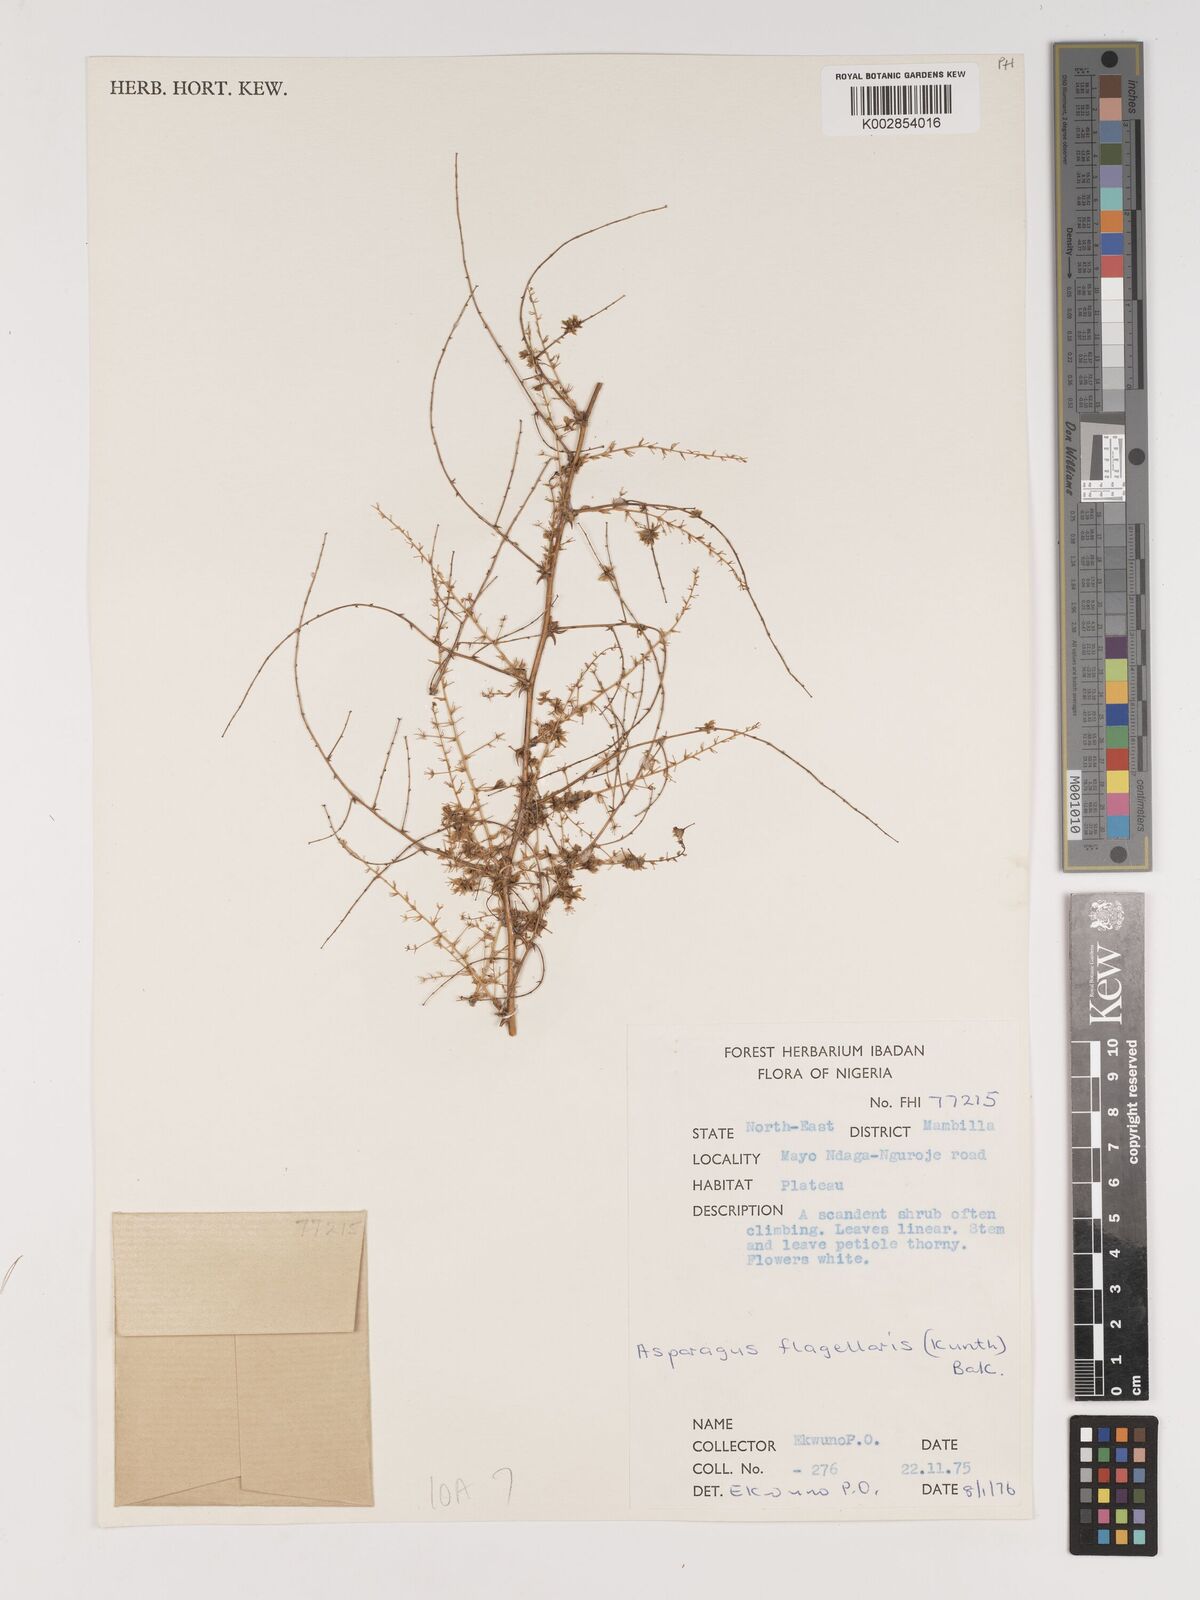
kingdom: Plantae
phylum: Tracheophyta
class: Liliopsida
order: Asparagales
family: Asparagaceae
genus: Asparagus
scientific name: Asparagus flagellaris
